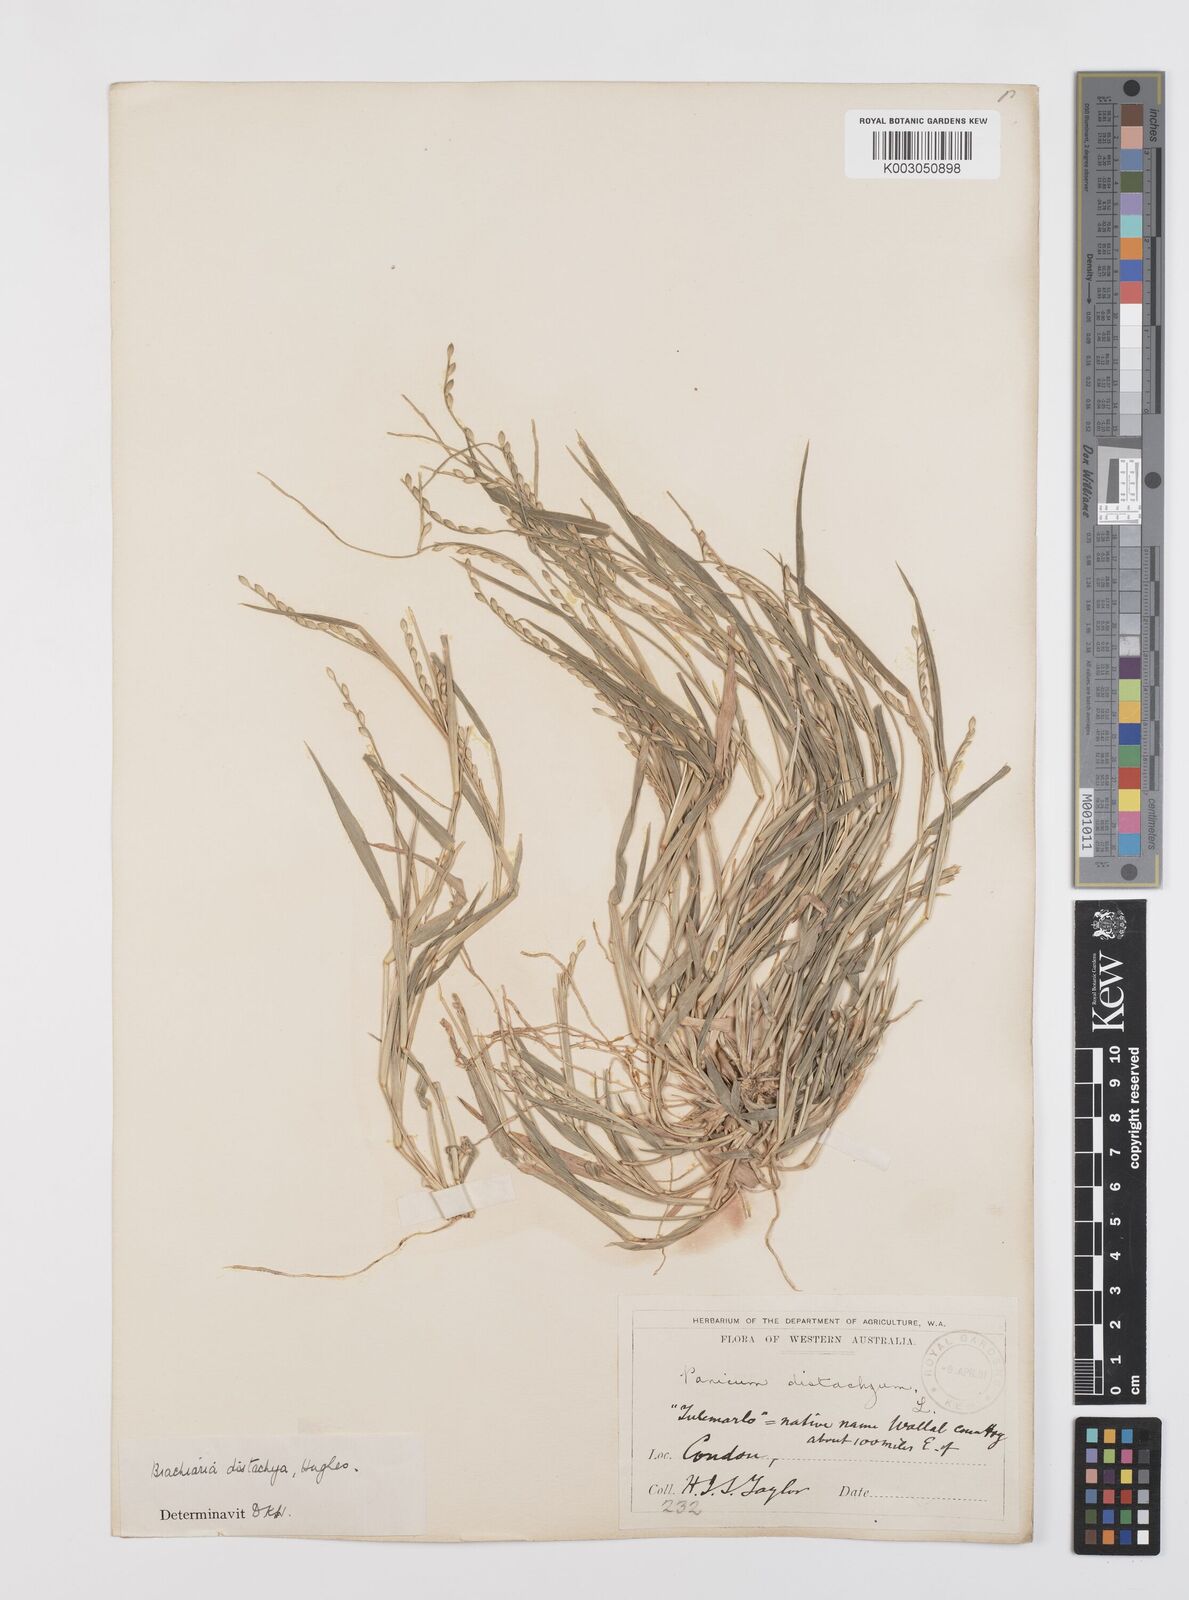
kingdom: Plantae
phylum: Tracheophyta
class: Liliopsida
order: Poales
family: Poaceae
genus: Urochloa
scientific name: Urochloa subquadripara
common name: Armgrass millet
